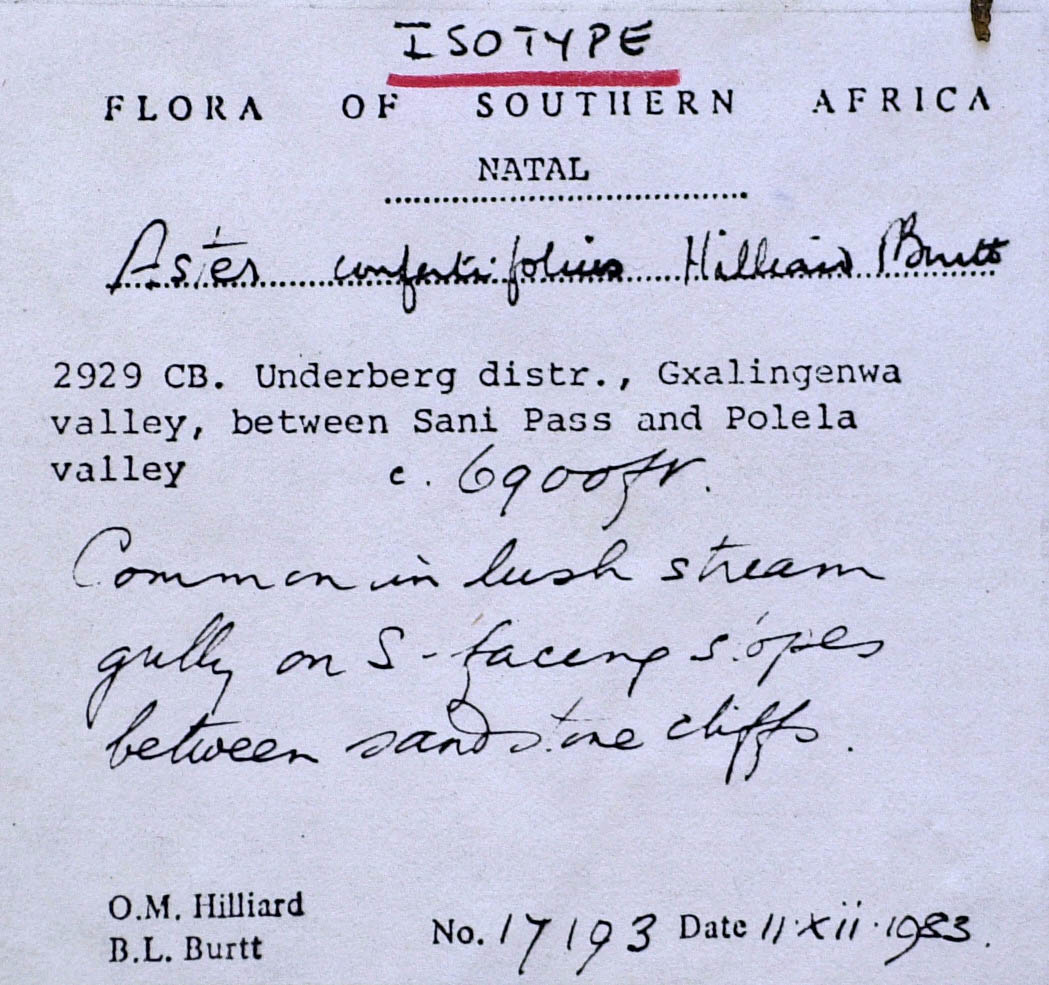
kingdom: Plantae
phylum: Tracheophyta
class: Magnoliopsida
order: Asterales
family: Asteraceae
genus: Afroaster
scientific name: Afroaster confertifolius
